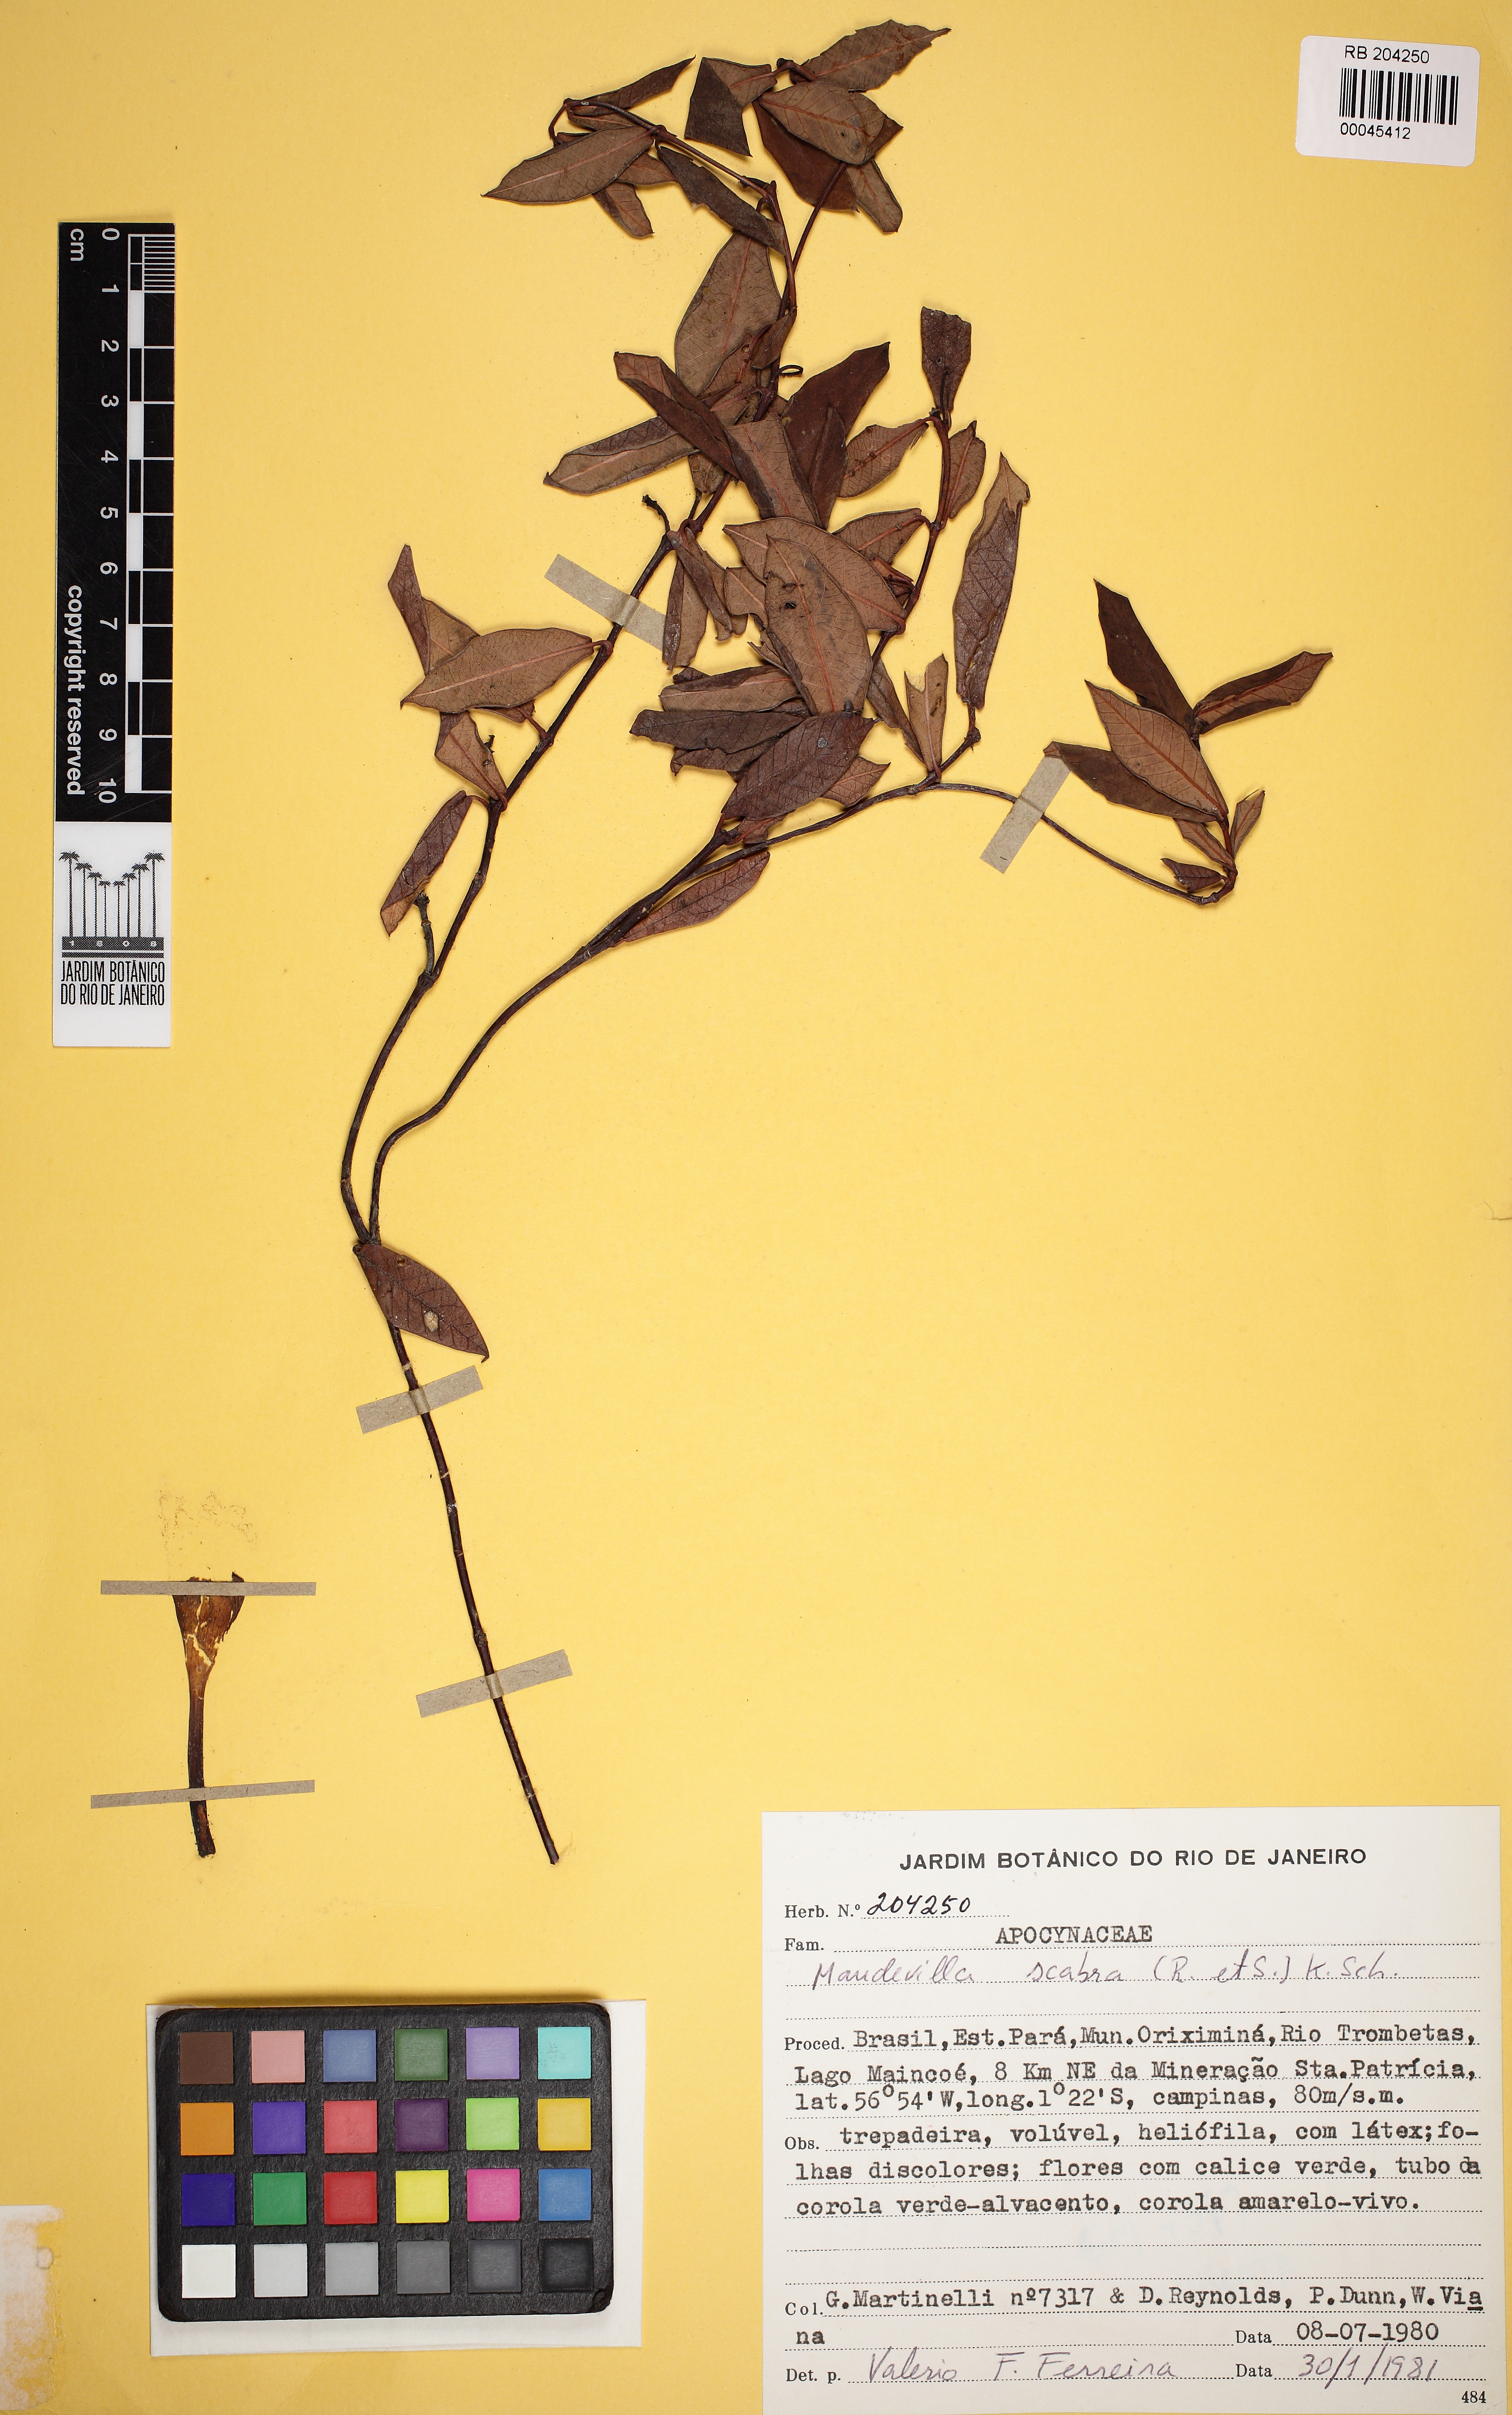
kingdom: Plantae
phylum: Tracheophyta
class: Magnoliopsida
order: Gentianales
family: Apocynaceae
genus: Mandevilla
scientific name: Mandevilla scabra
